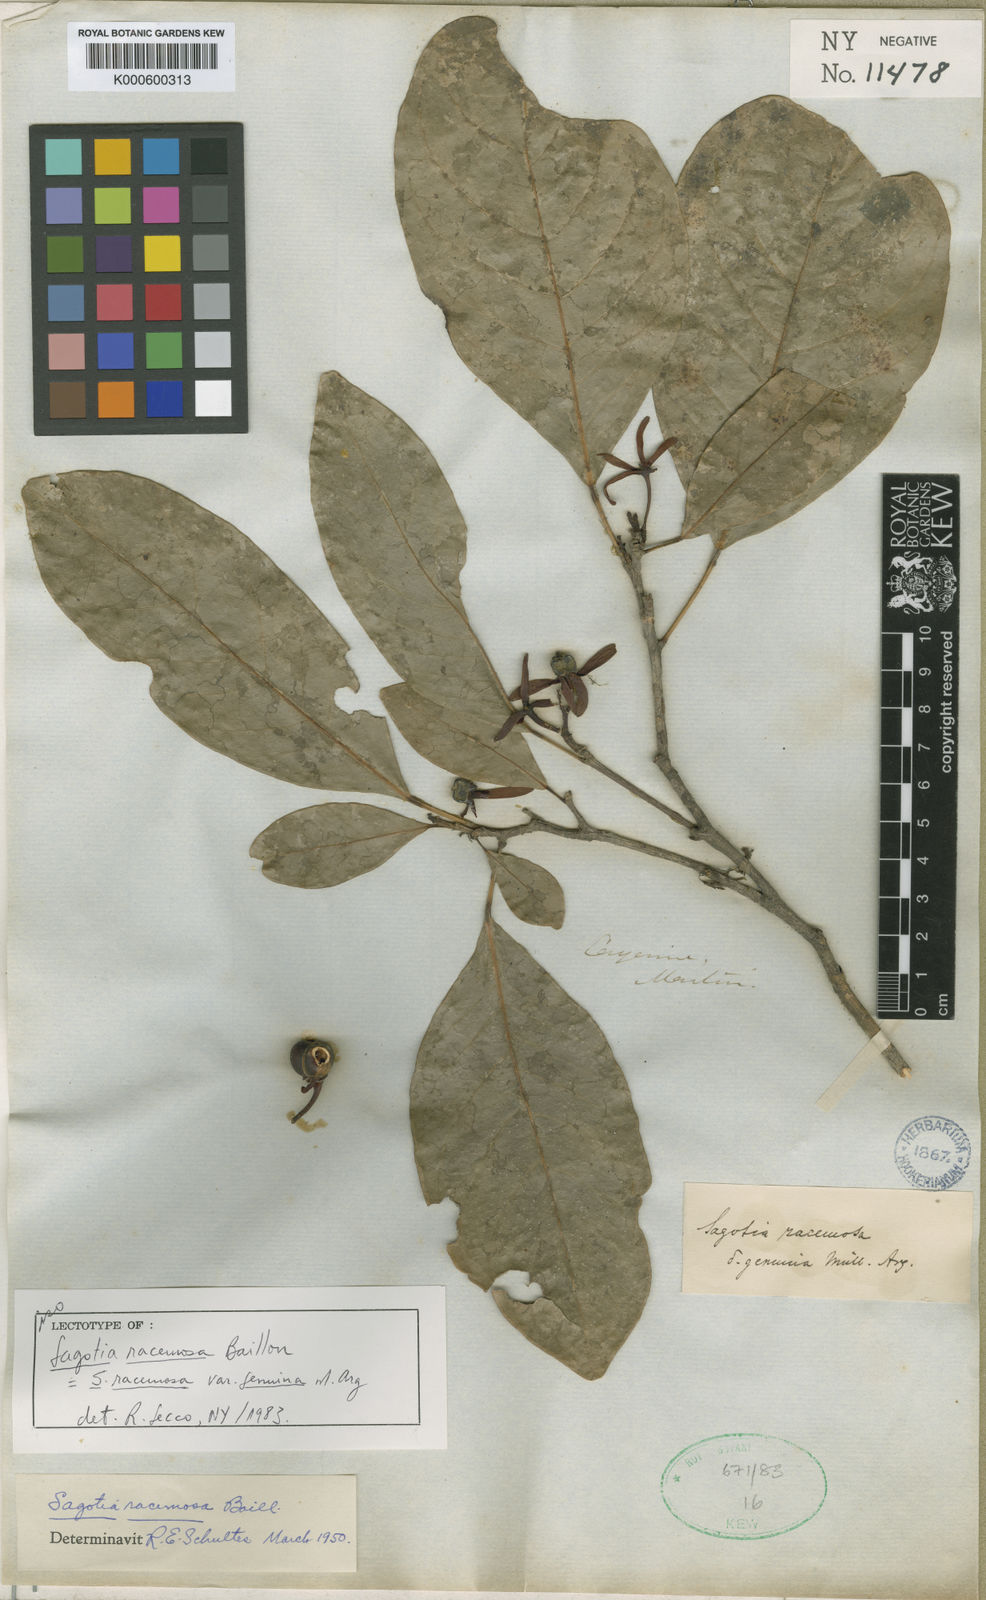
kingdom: Plantae
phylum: Tracheophyta
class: Magnoliopsida
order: Malpighiales
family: Euphorbiaceae
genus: Sagotia
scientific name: Sagotia racemosa
